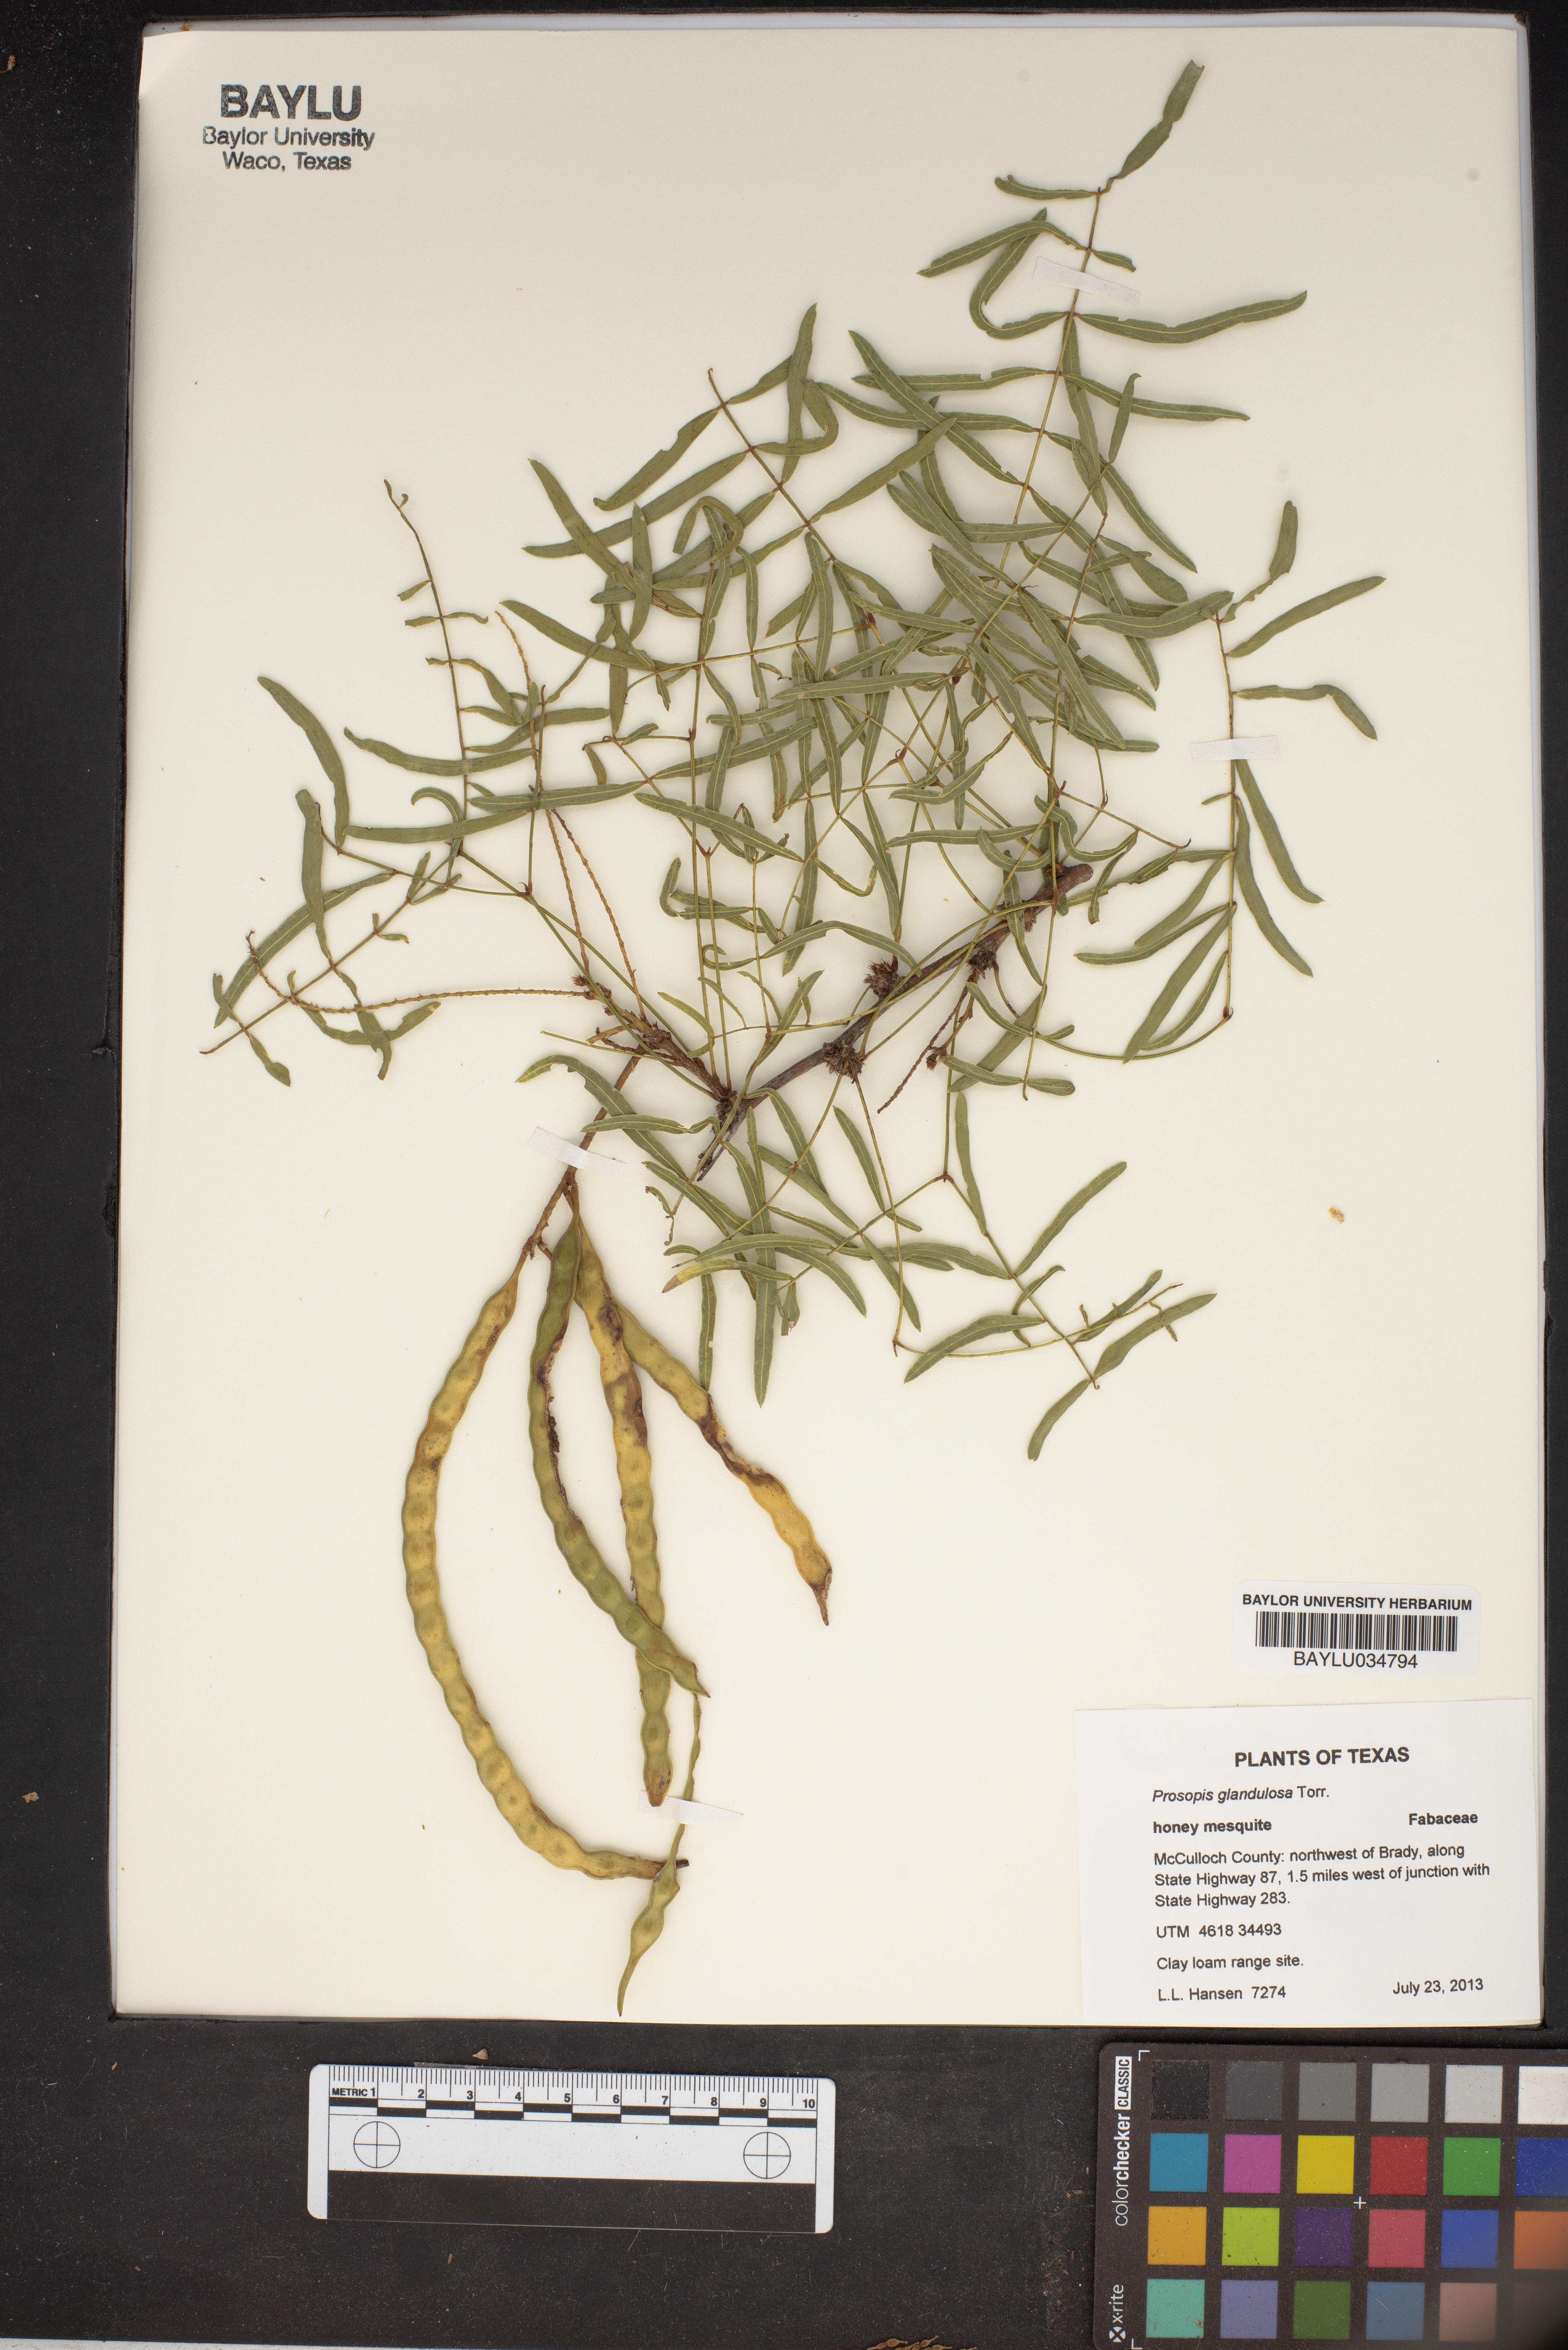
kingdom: Plantae
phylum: Tracheophyta
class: Magnoliopsida
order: Fabales
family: Fabaceae
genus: Prosopis
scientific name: Prosopis glandulosa
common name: Honey mesquite
